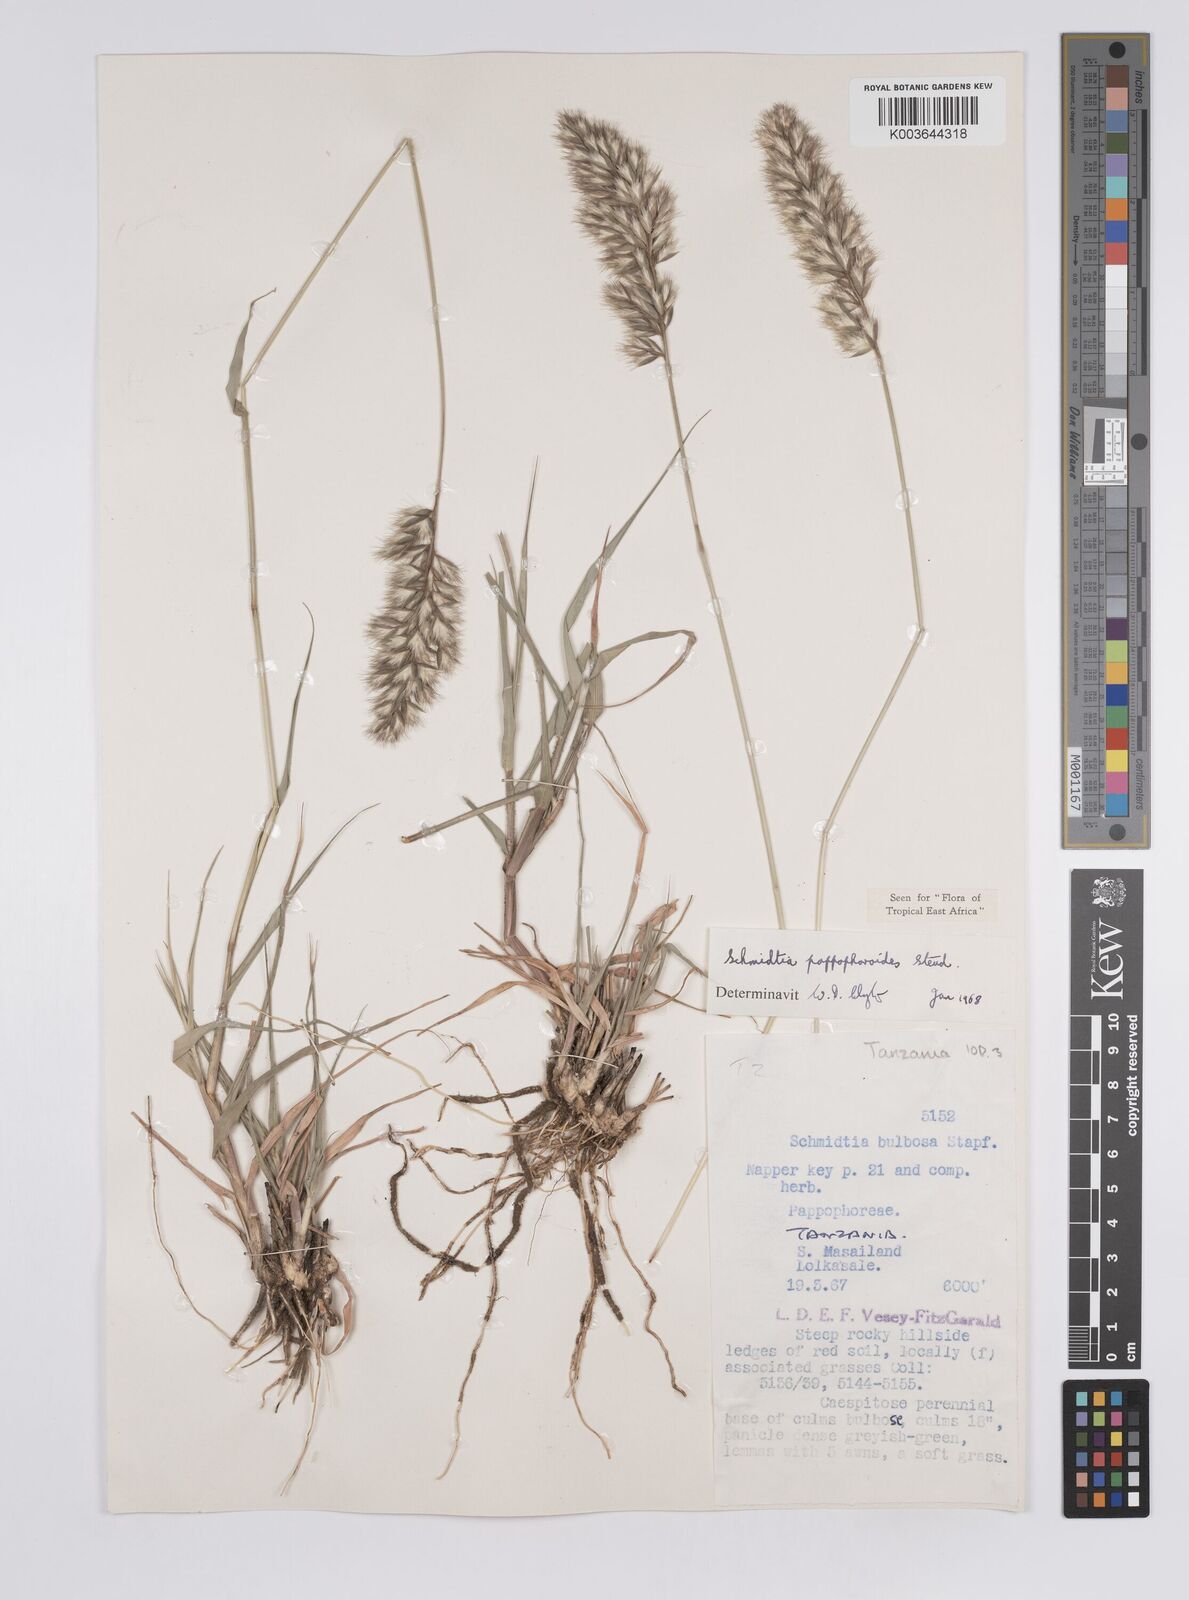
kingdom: Plantae
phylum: Tracheophyta
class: Liliopsida
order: Poales
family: Poaceae
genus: Schmidtia
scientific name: Schmidtia pappophoroides
